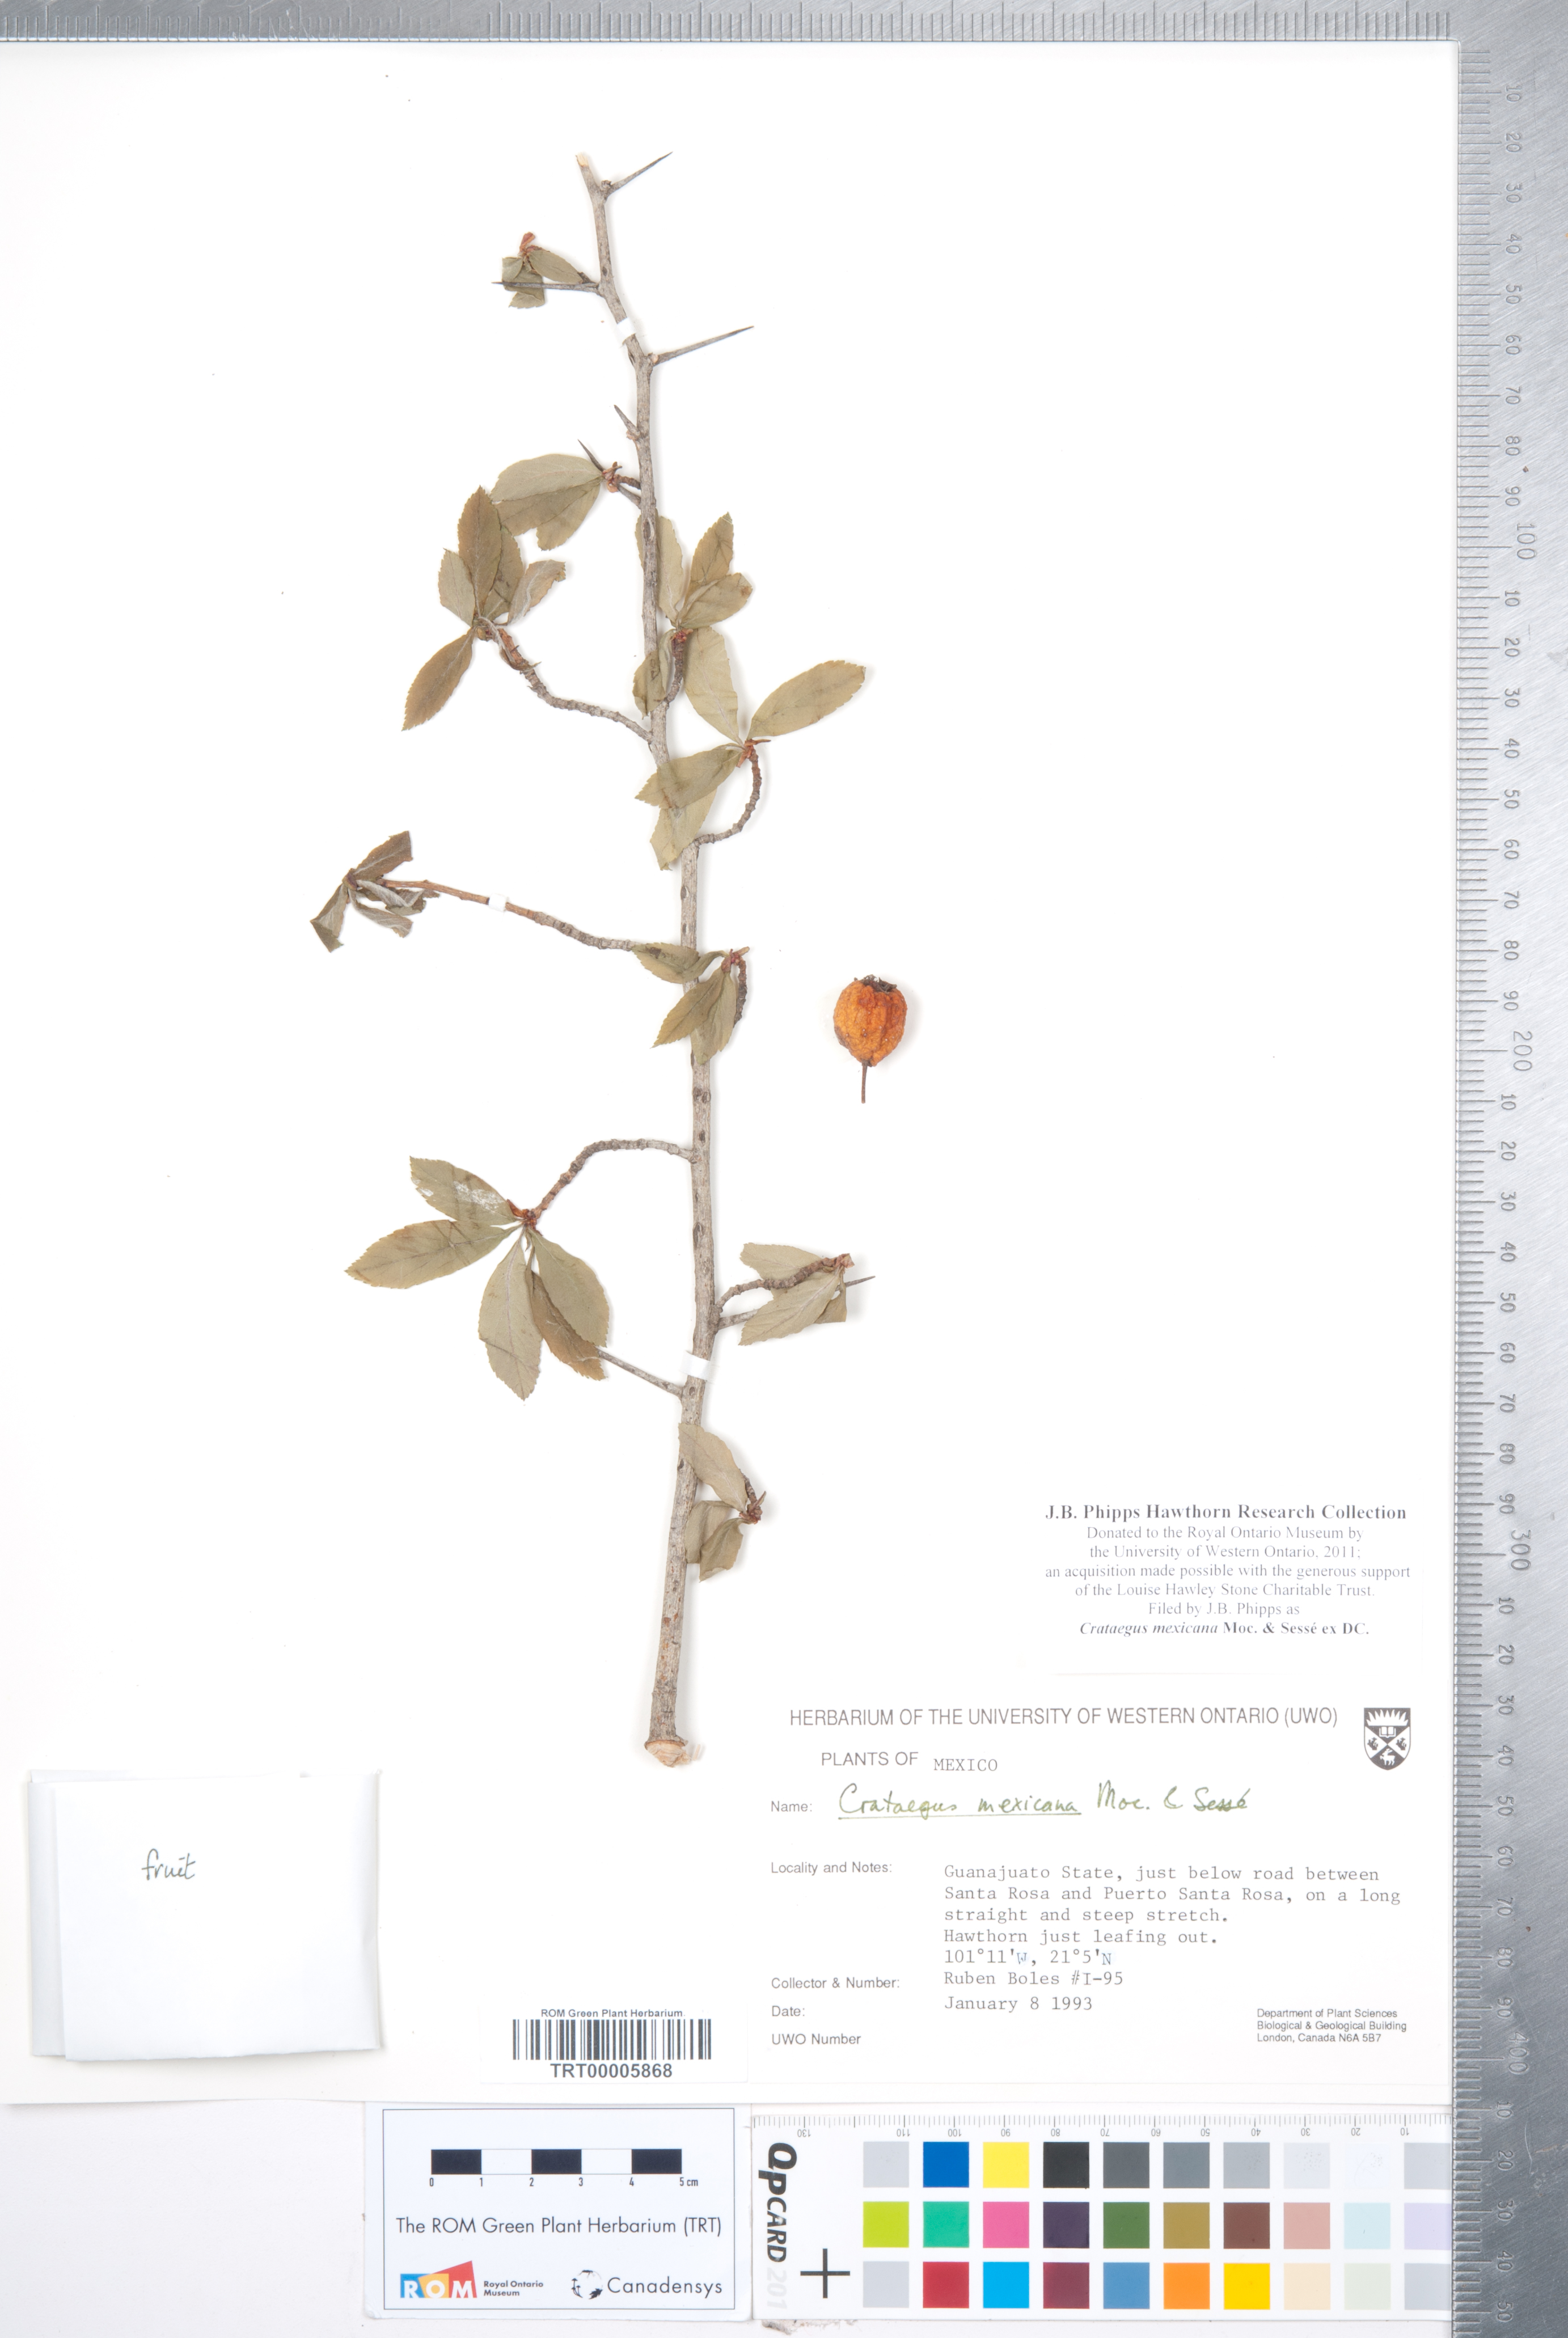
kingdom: Plantae
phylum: Tracheophyta
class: Magnoliopsida
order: Rosales
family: Rosaceae
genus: Crataegus
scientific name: Crataegus mexicana
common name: Mexican hawthorn
